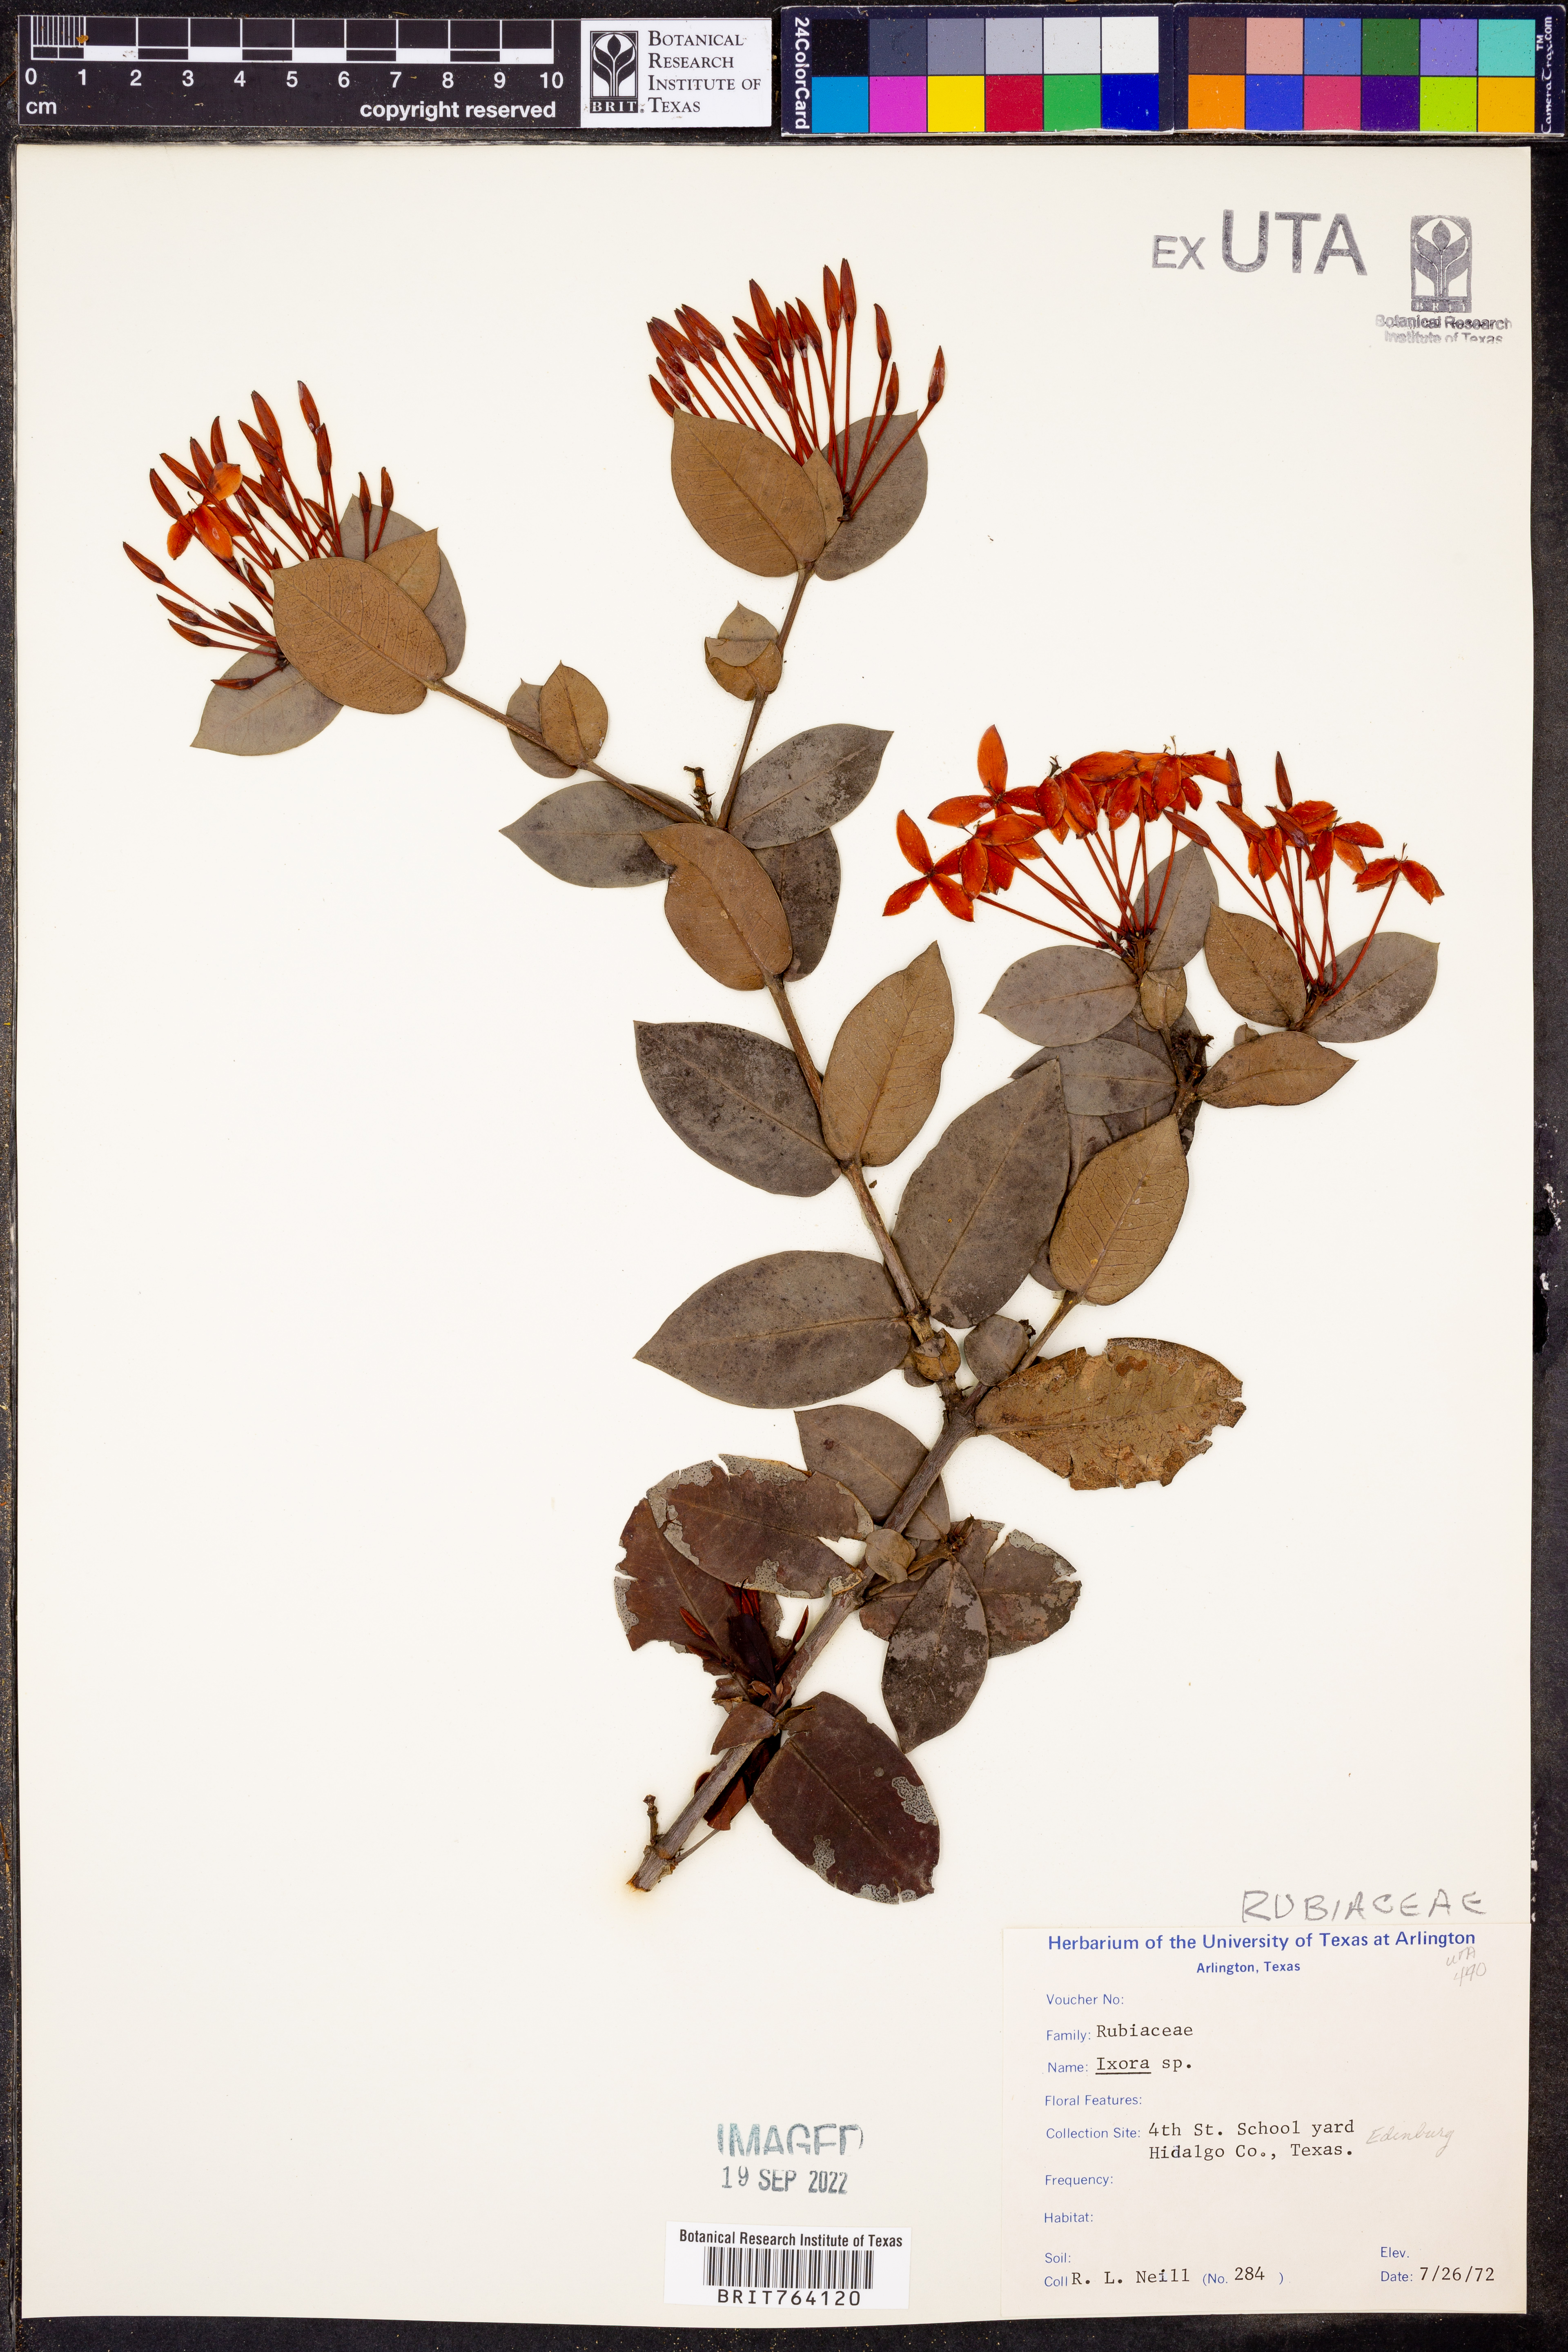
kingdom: Plantae
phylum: Tracheophyta
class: Magnoliopsida
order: Gentianales
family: Rubiaceae
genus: Ixora
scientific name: Ixora
